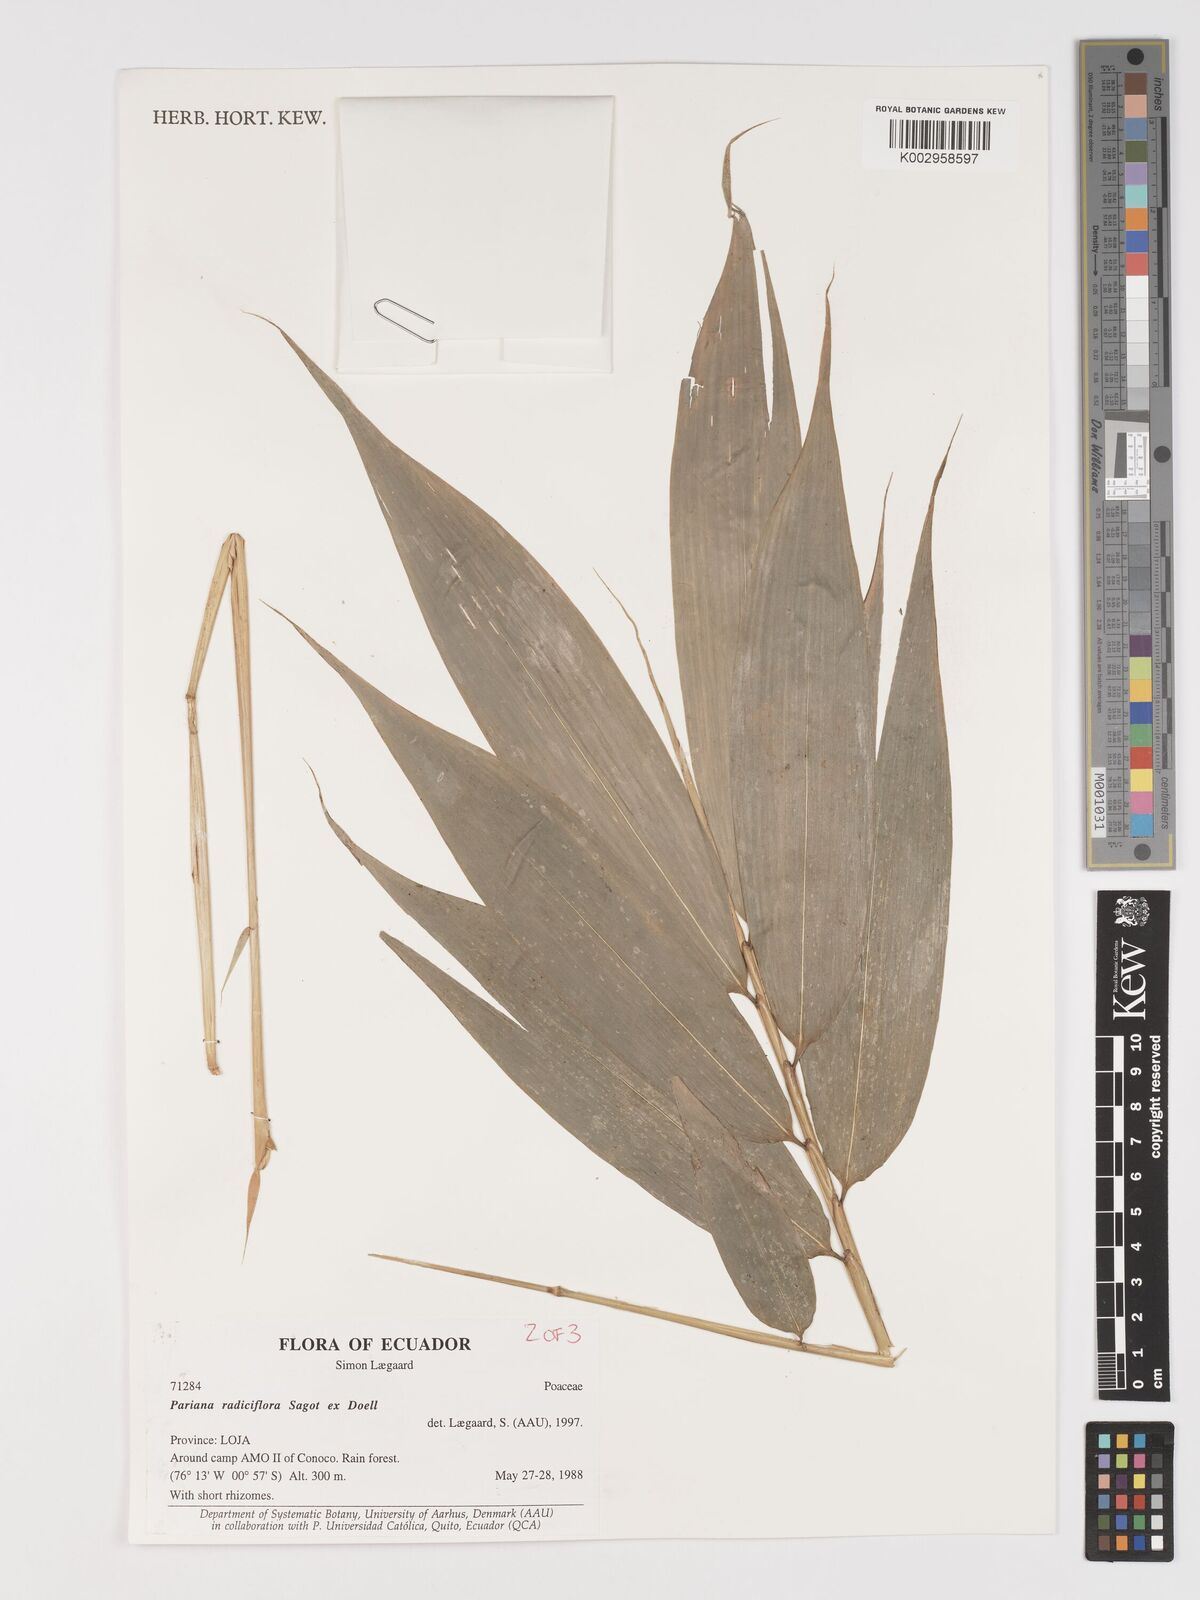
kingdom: Plantae
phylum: Tracheophyta
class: Liliopsida
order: Poales
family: Poaceae
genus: Pariana
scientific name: Pariana radiciflora
